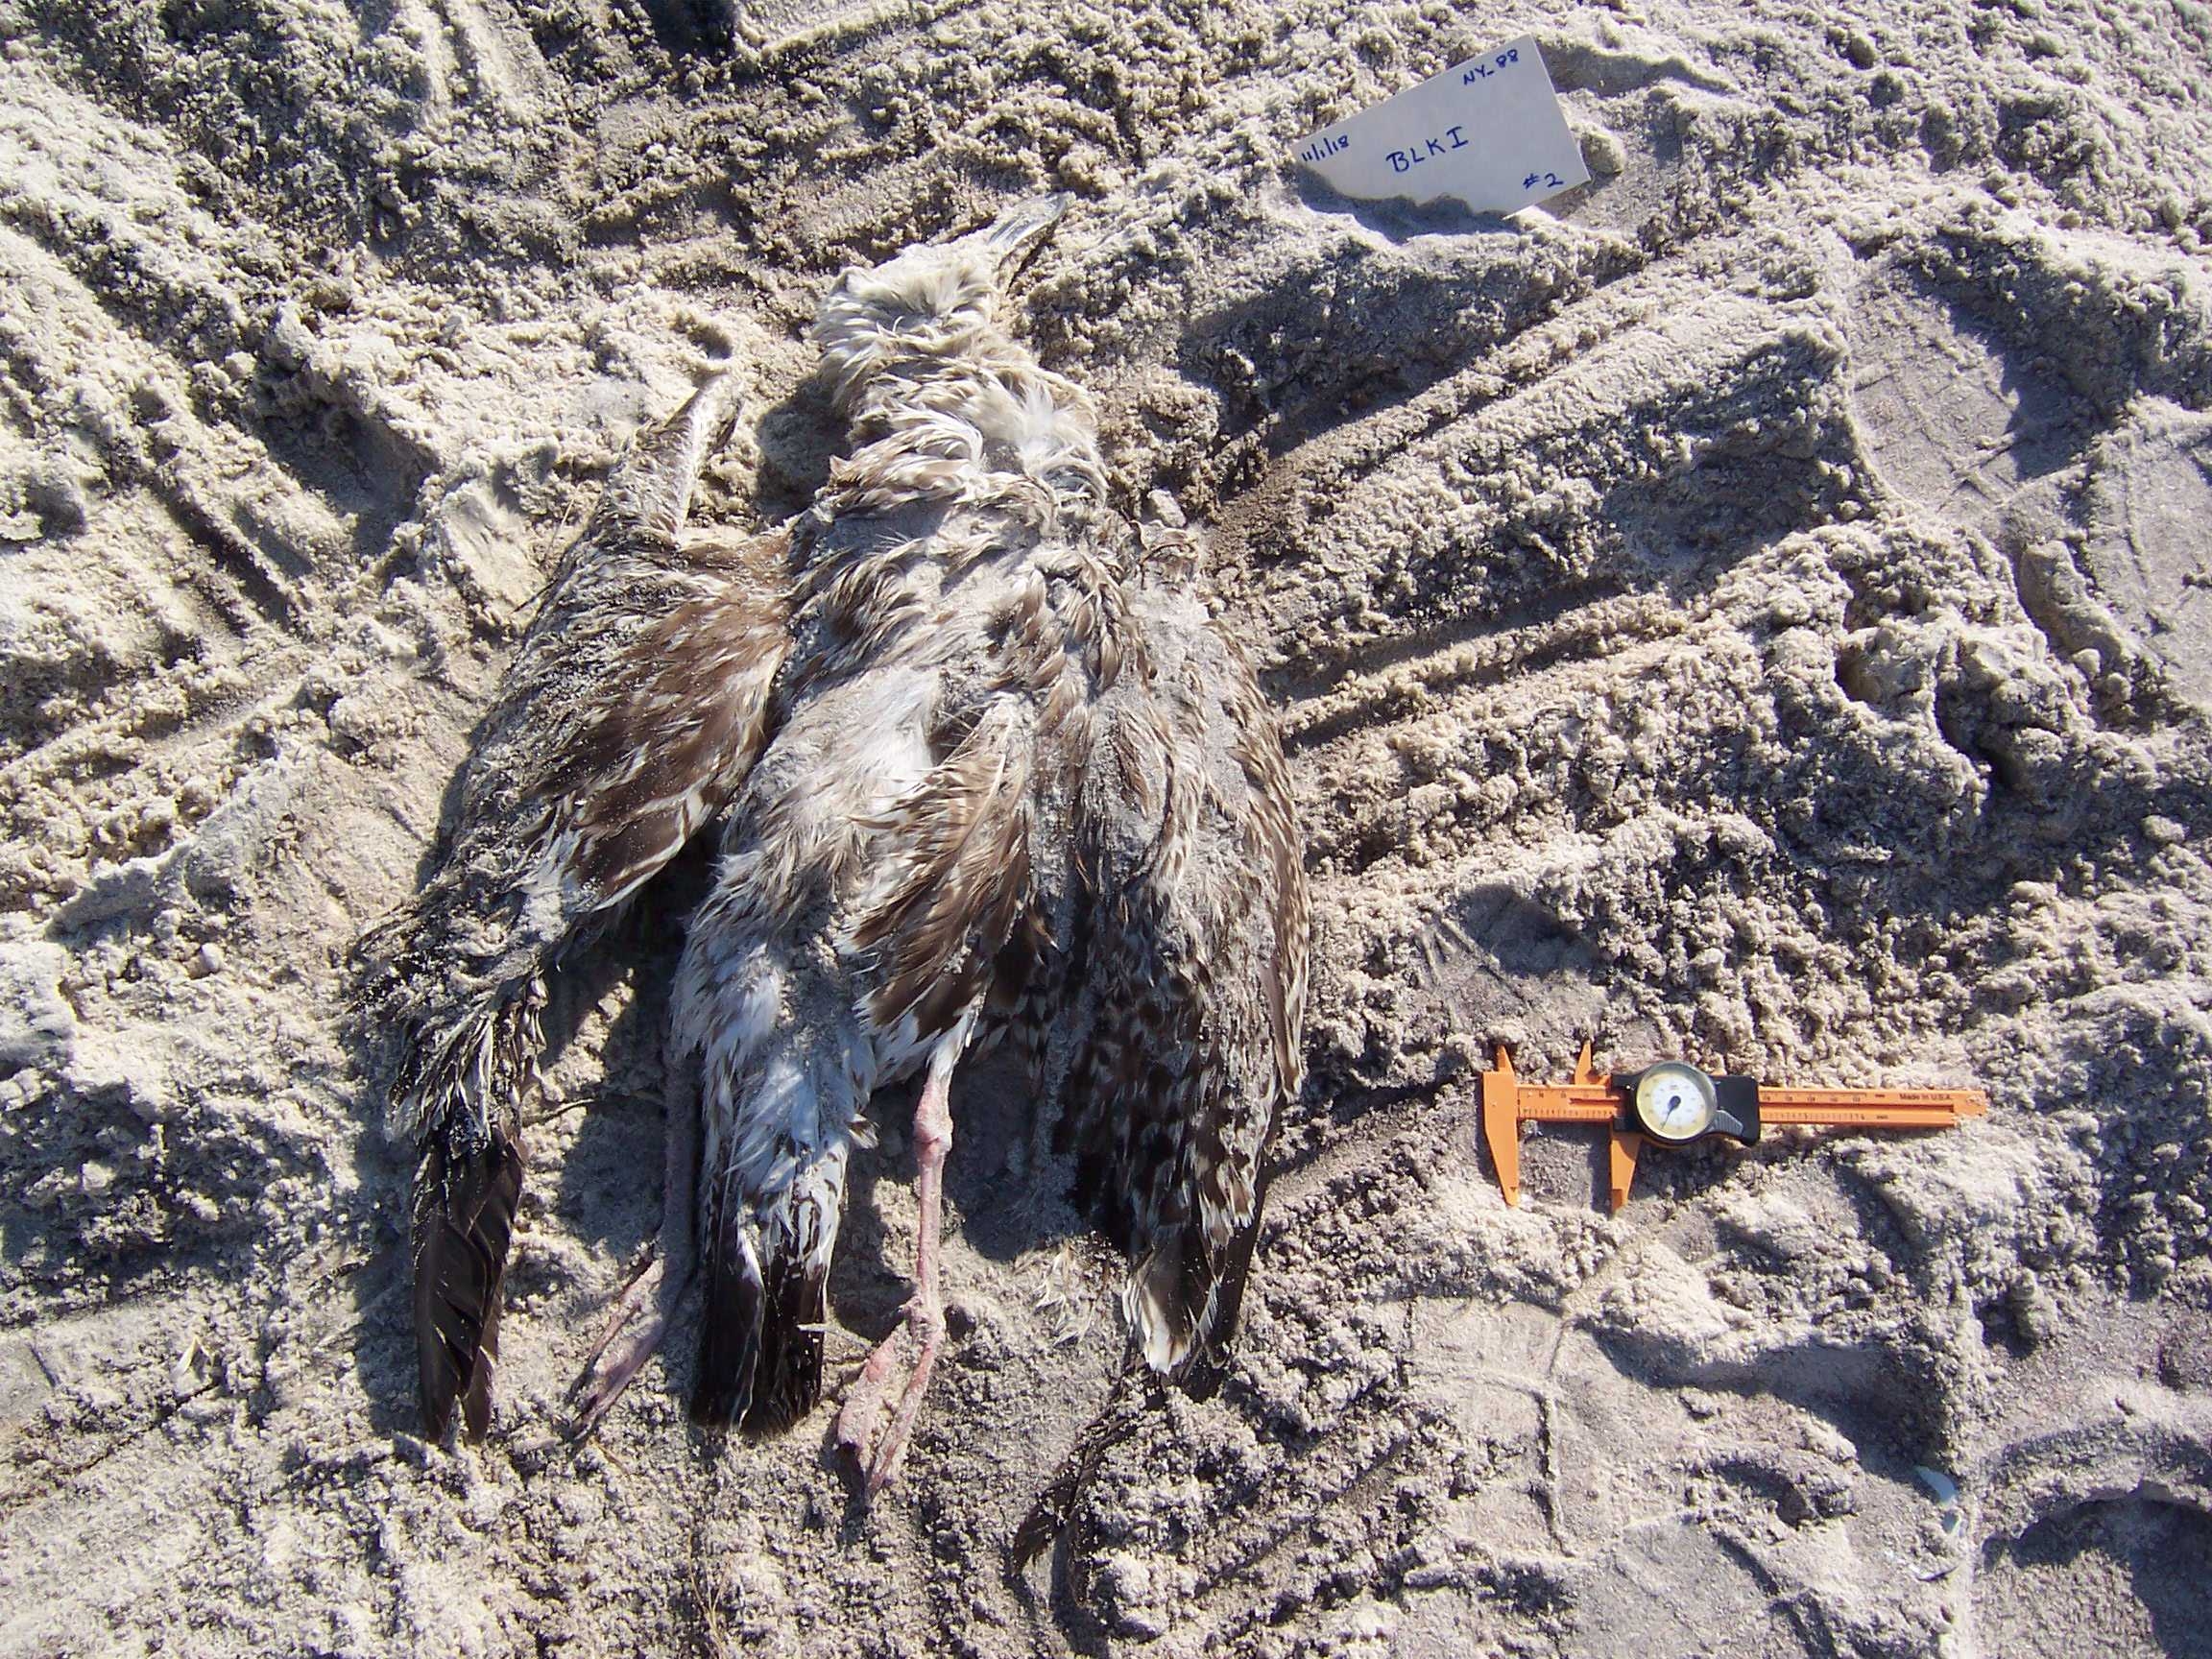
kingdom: Animalia
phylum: Chordata
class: Aves
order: Piciformes
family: Picidae
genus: Colaptes
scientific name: Colaptes auratus
